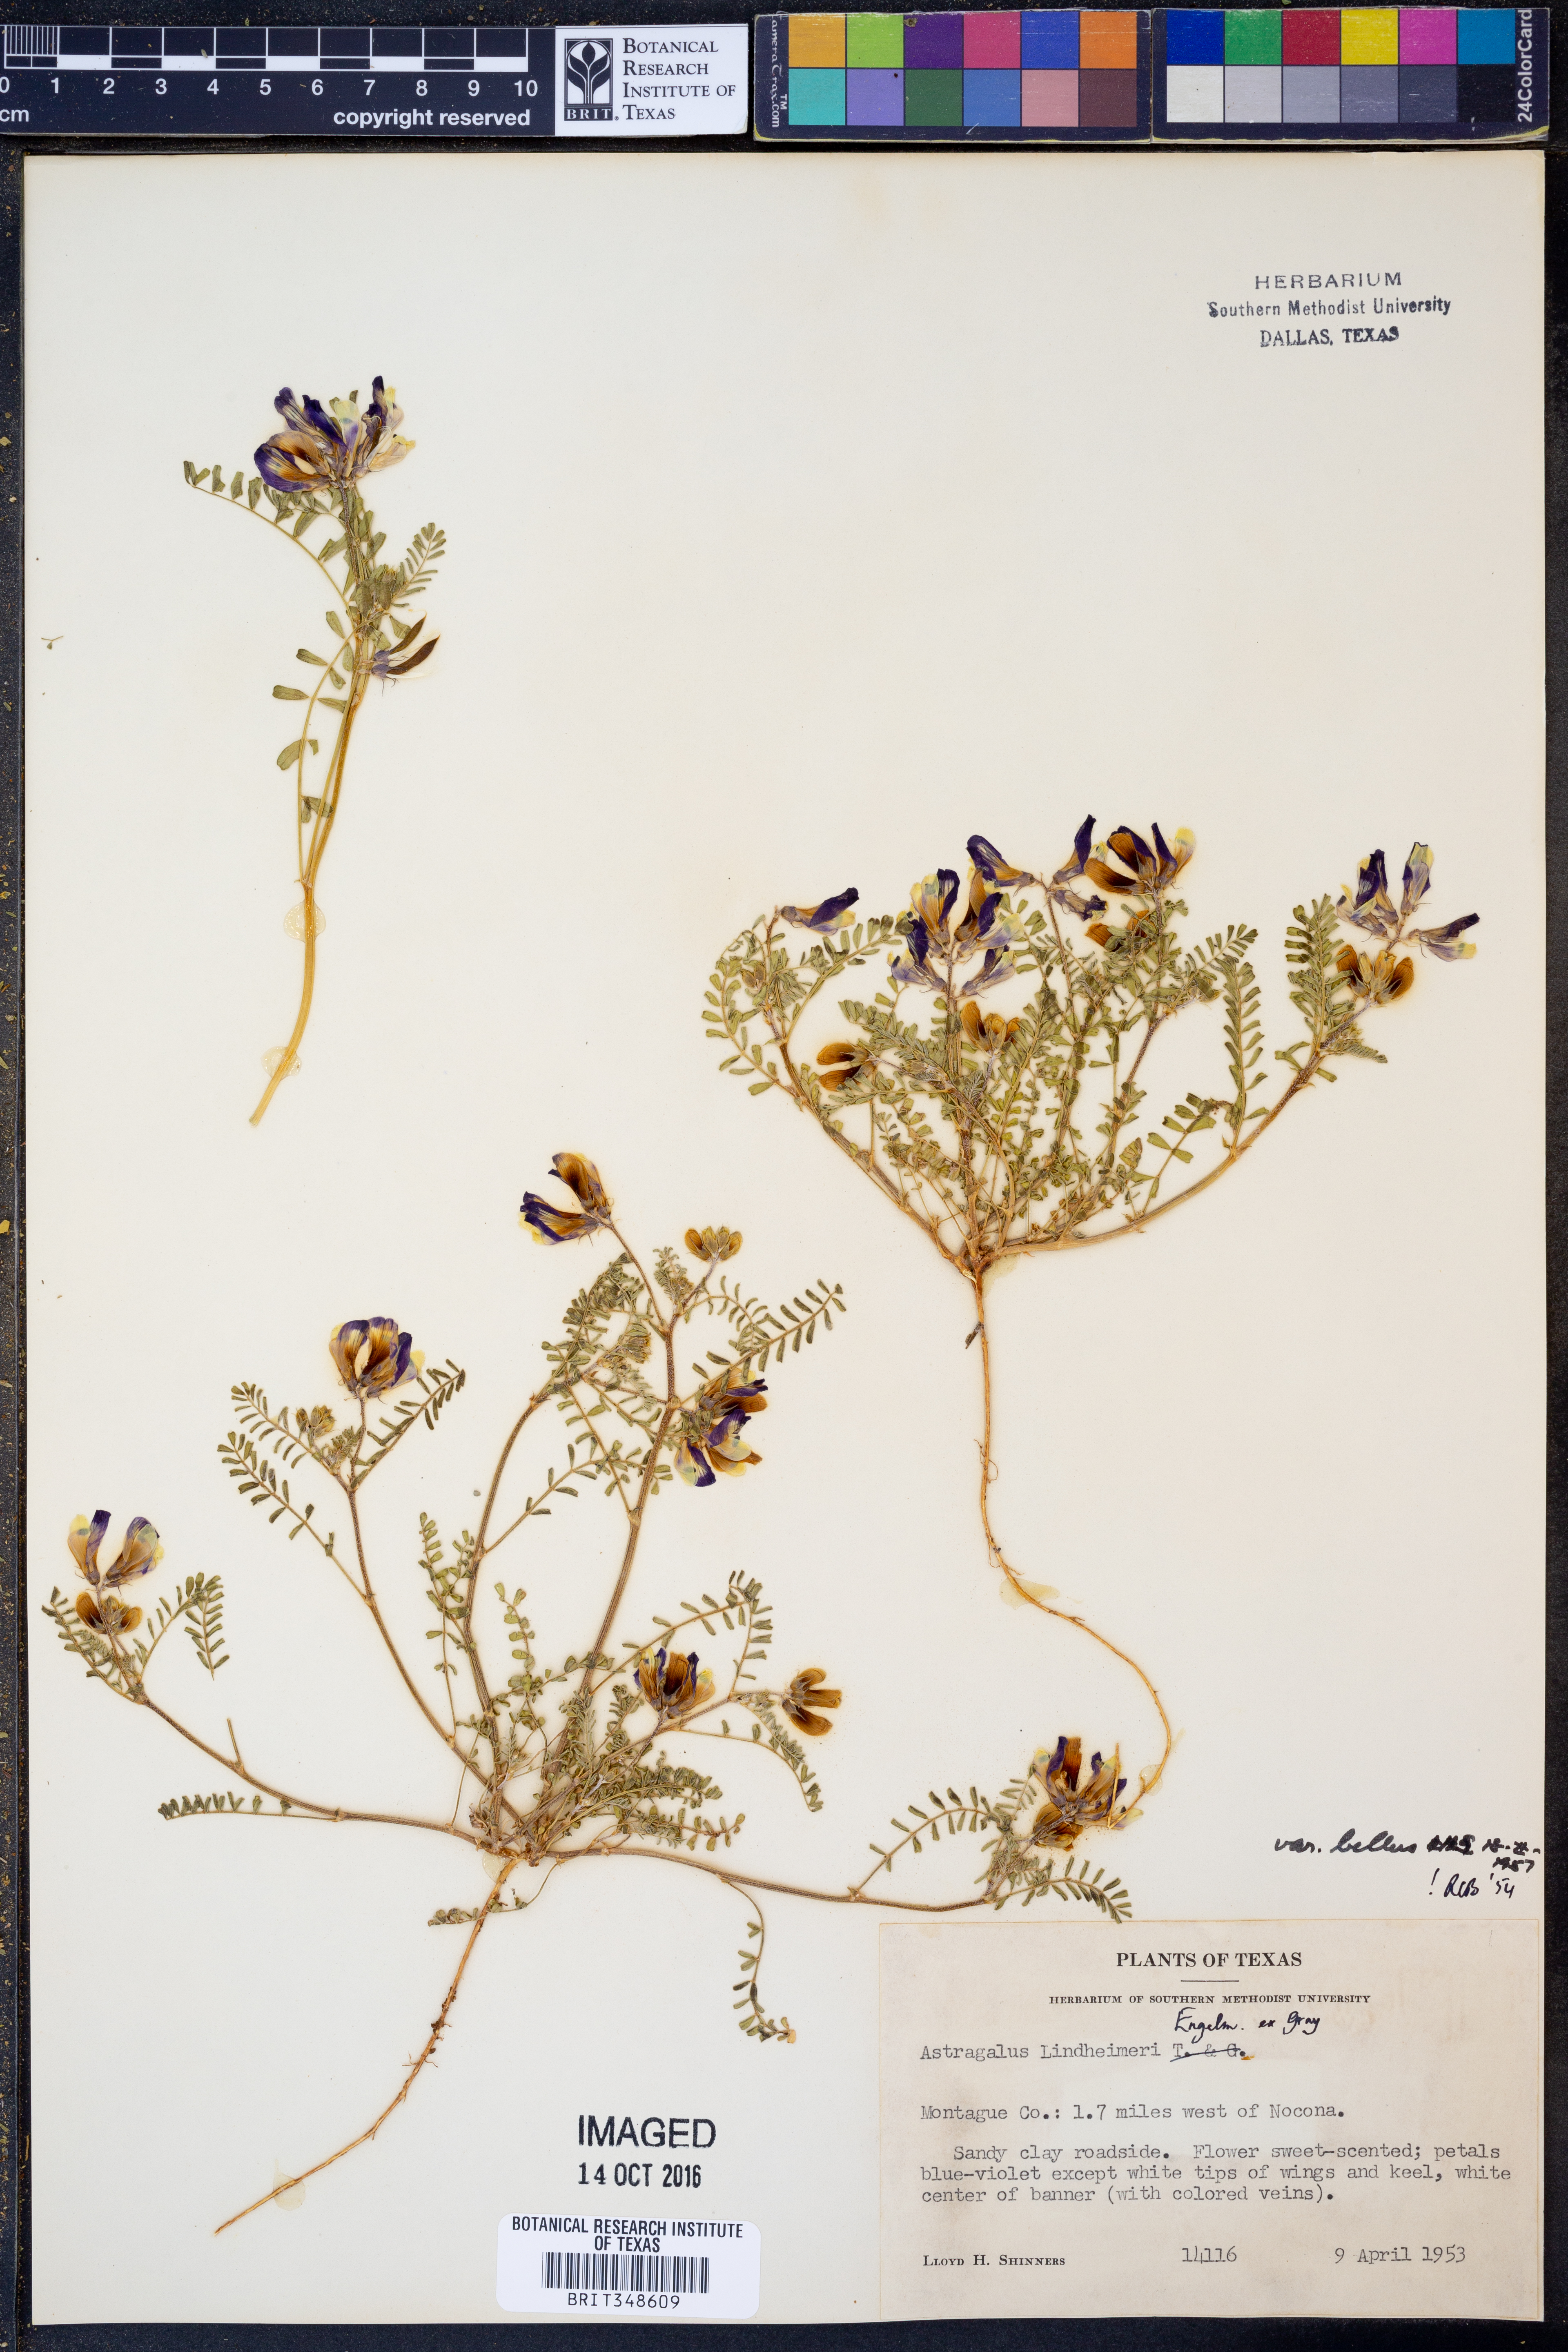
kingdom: Plantae
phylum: Tracheophyta
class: Magnoliopsida
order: Fabales
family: Fabaceae
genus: Astragalus
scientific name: Astragalus lindheimeri
